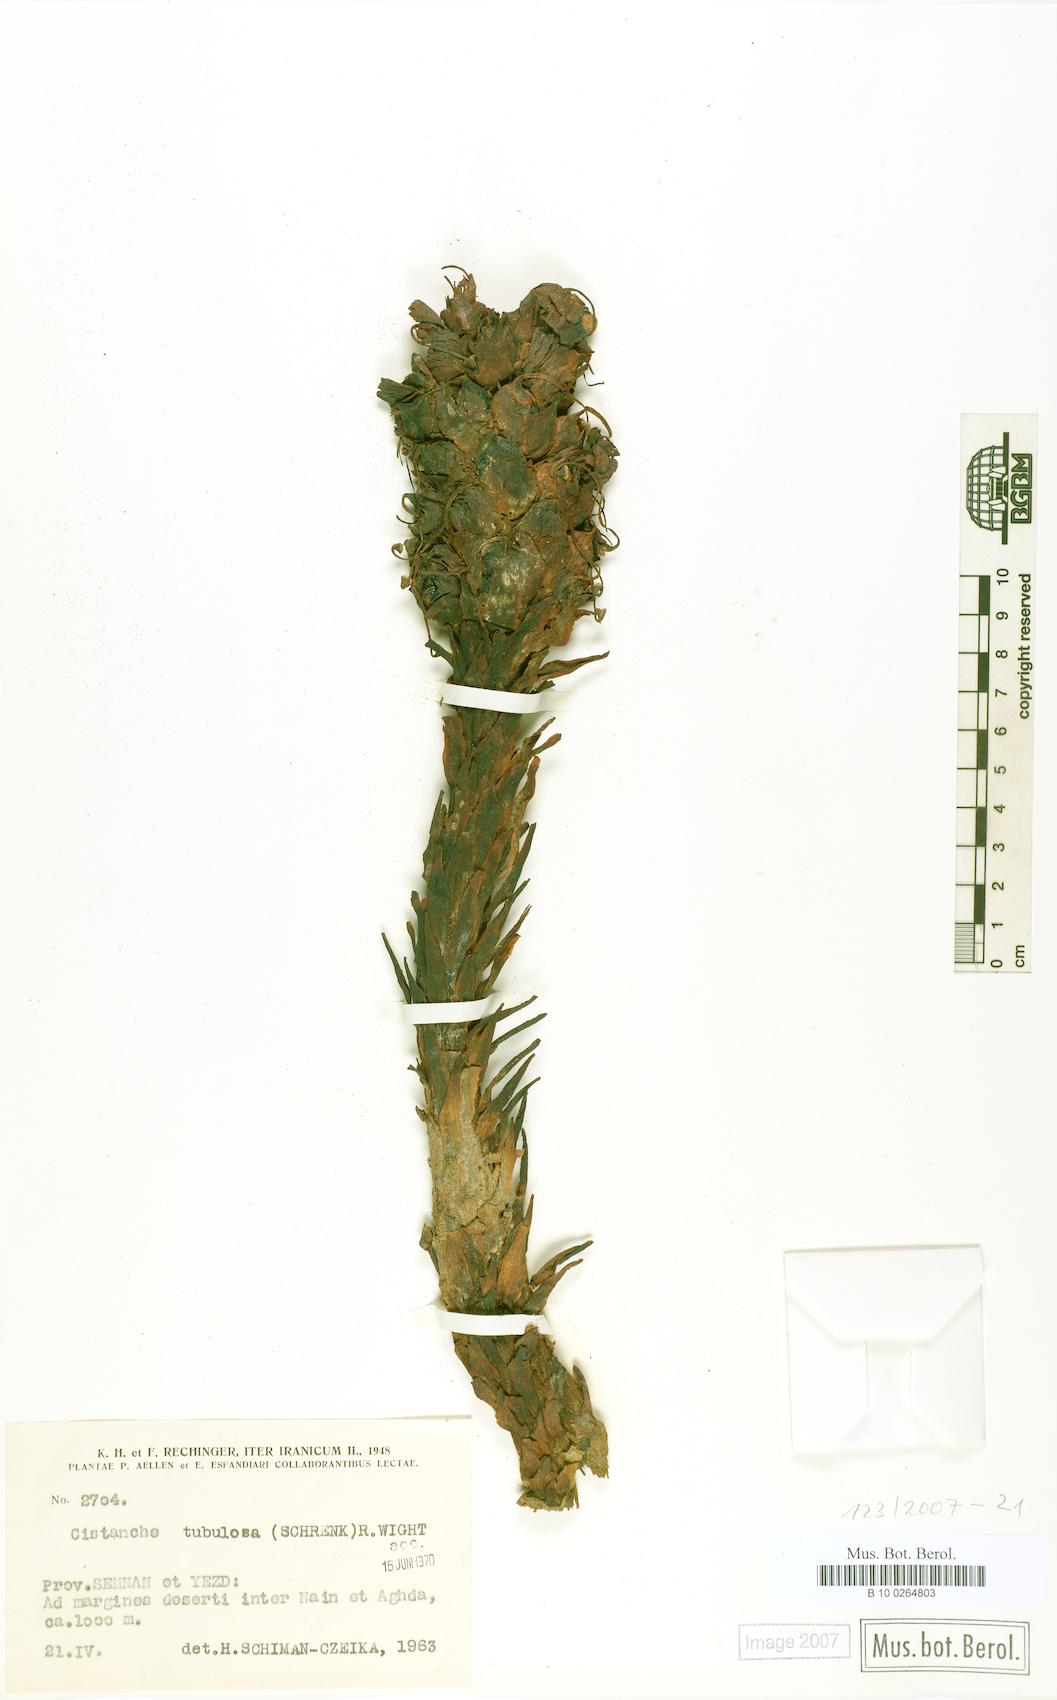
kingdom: Plantae
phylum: Tracheophyta
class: Magnoliopsida
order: Lamiales
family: Orobanchaceae
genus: Cistanche
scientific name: Cistanche flava
